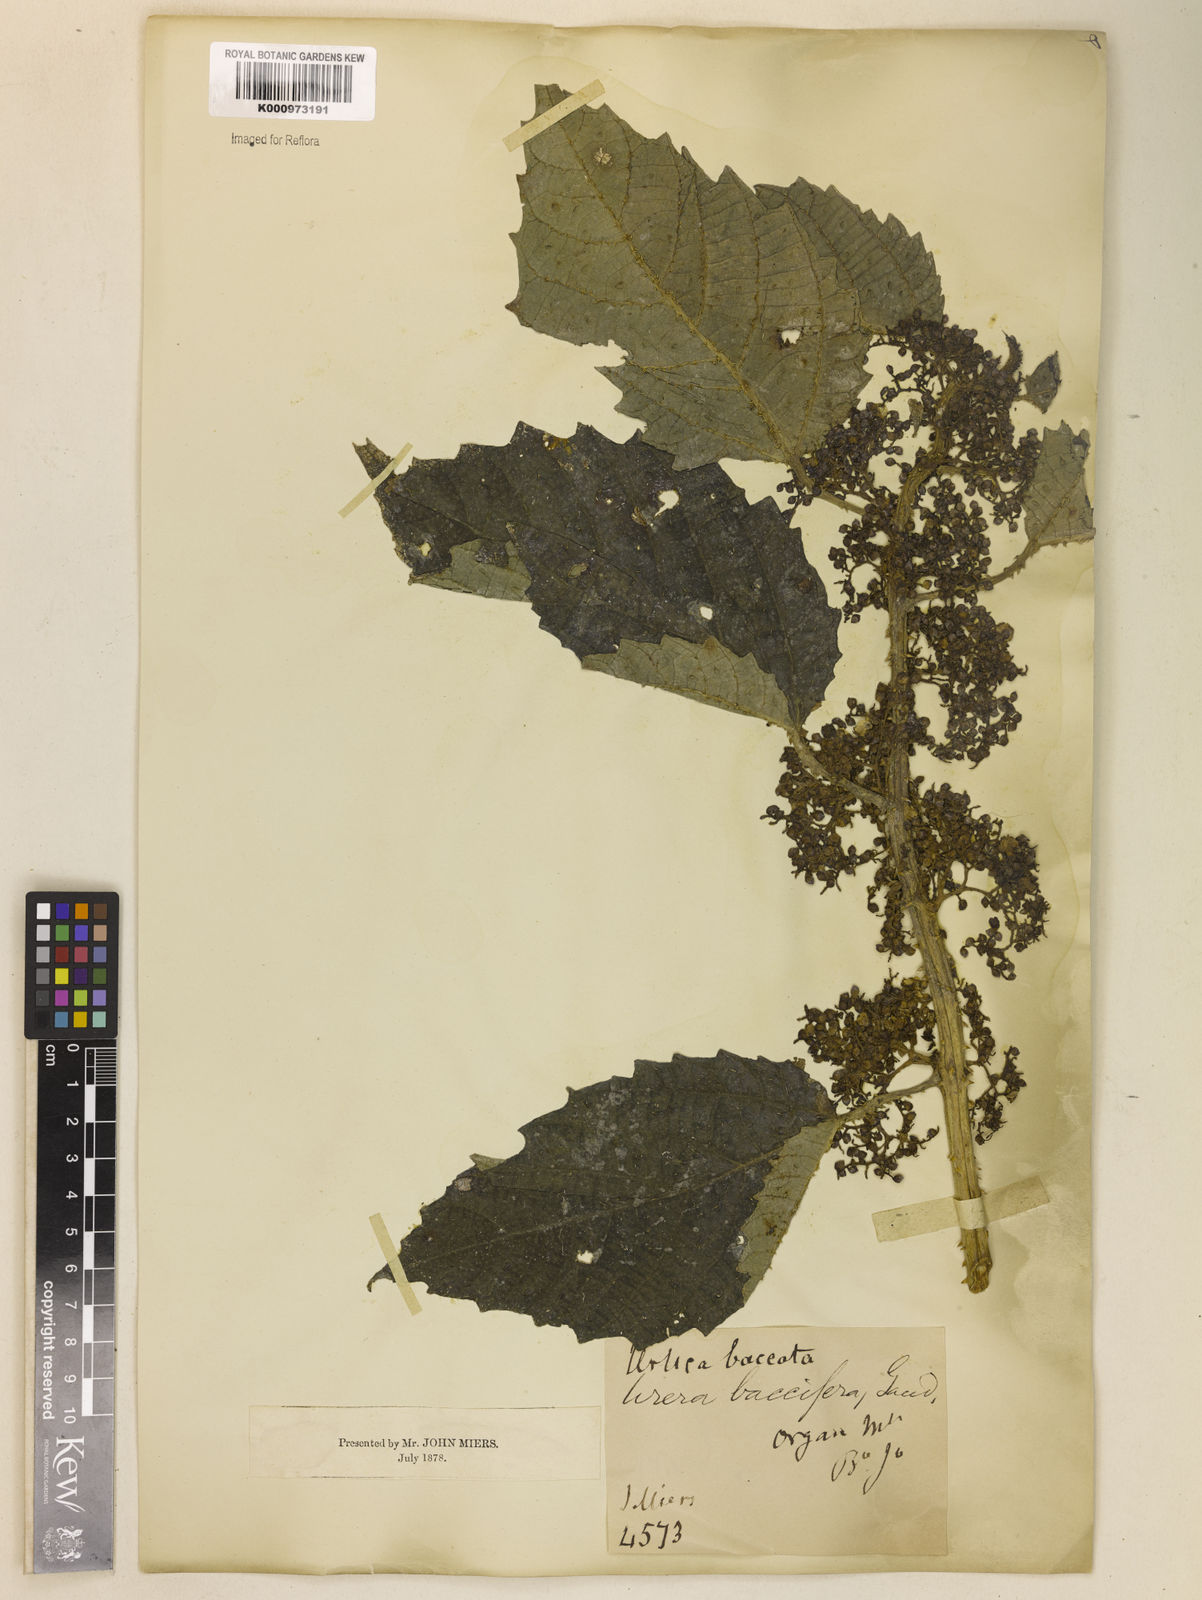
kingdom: Plantae
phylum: Tracheophyta
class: Magnoliopsida
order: Rosales
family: Urticaceae
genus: Urera
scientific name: Urera baccifera
